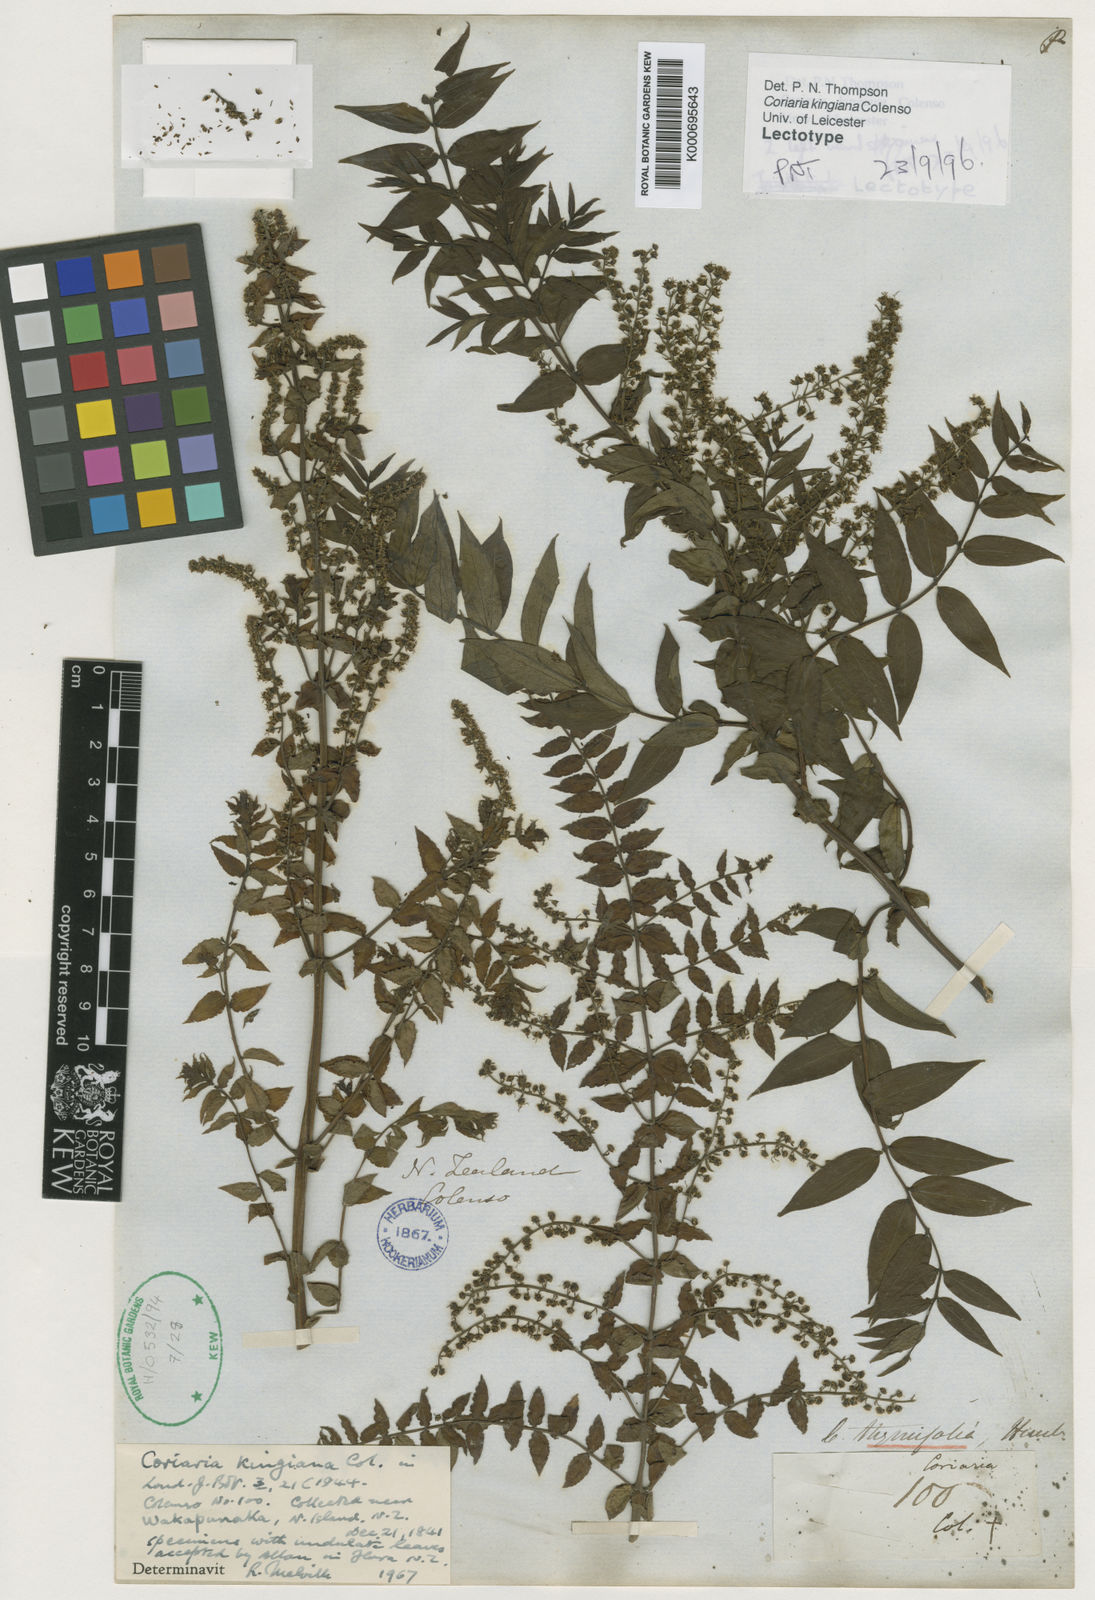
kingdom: Plantae
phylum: Tracheophyta
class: Magnoliopsida
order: Cucurbitales
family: Coriariaceae
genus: Coriaria
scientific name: Coriaria kingiana
